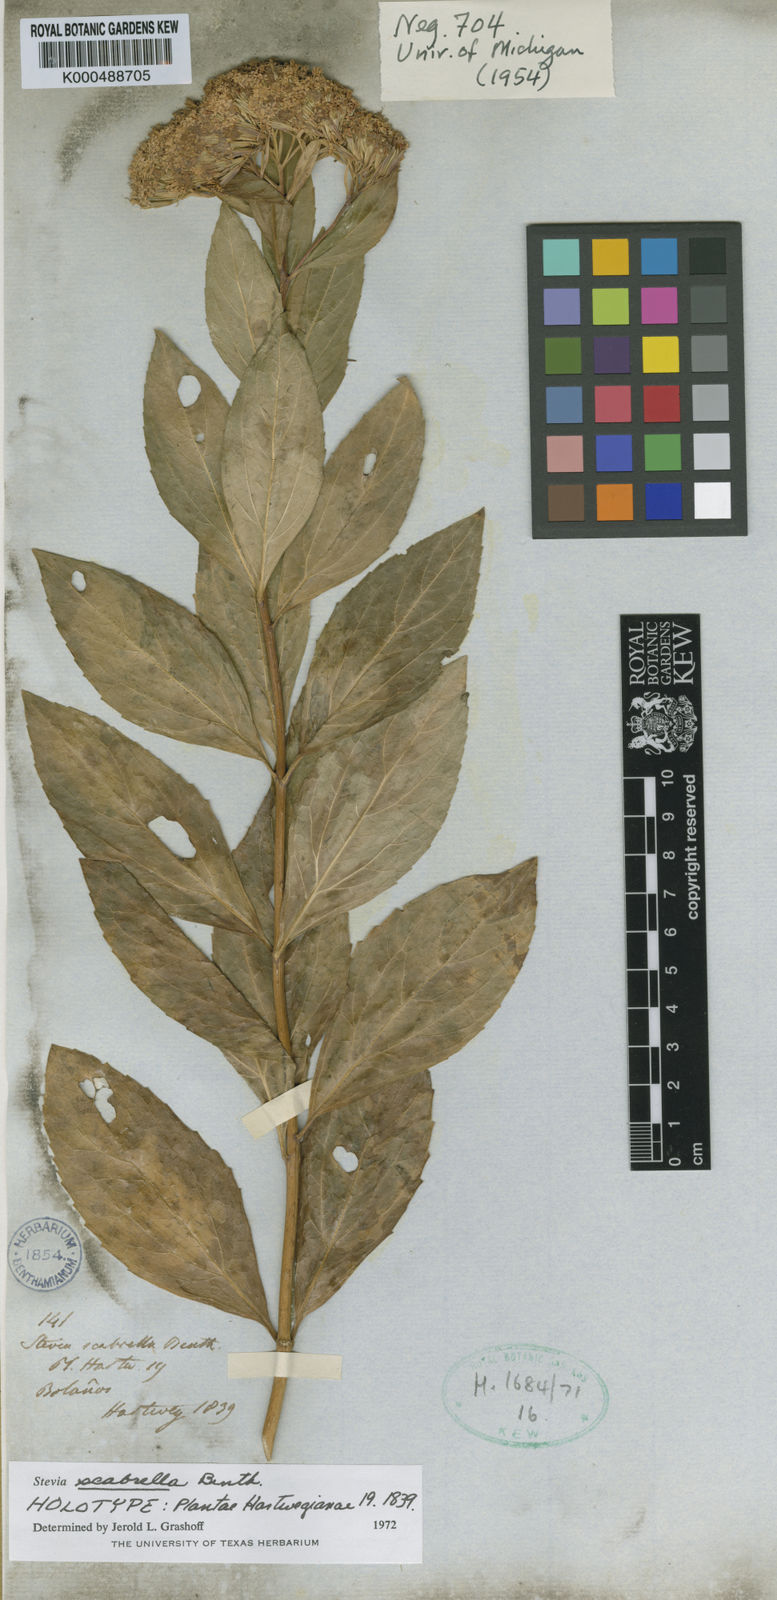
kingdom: Plantae
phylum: Tracheophyta
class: Magnoliopsida
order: Asterales
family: Asteraceae
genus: Stevia
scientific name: Stevia scabrella
